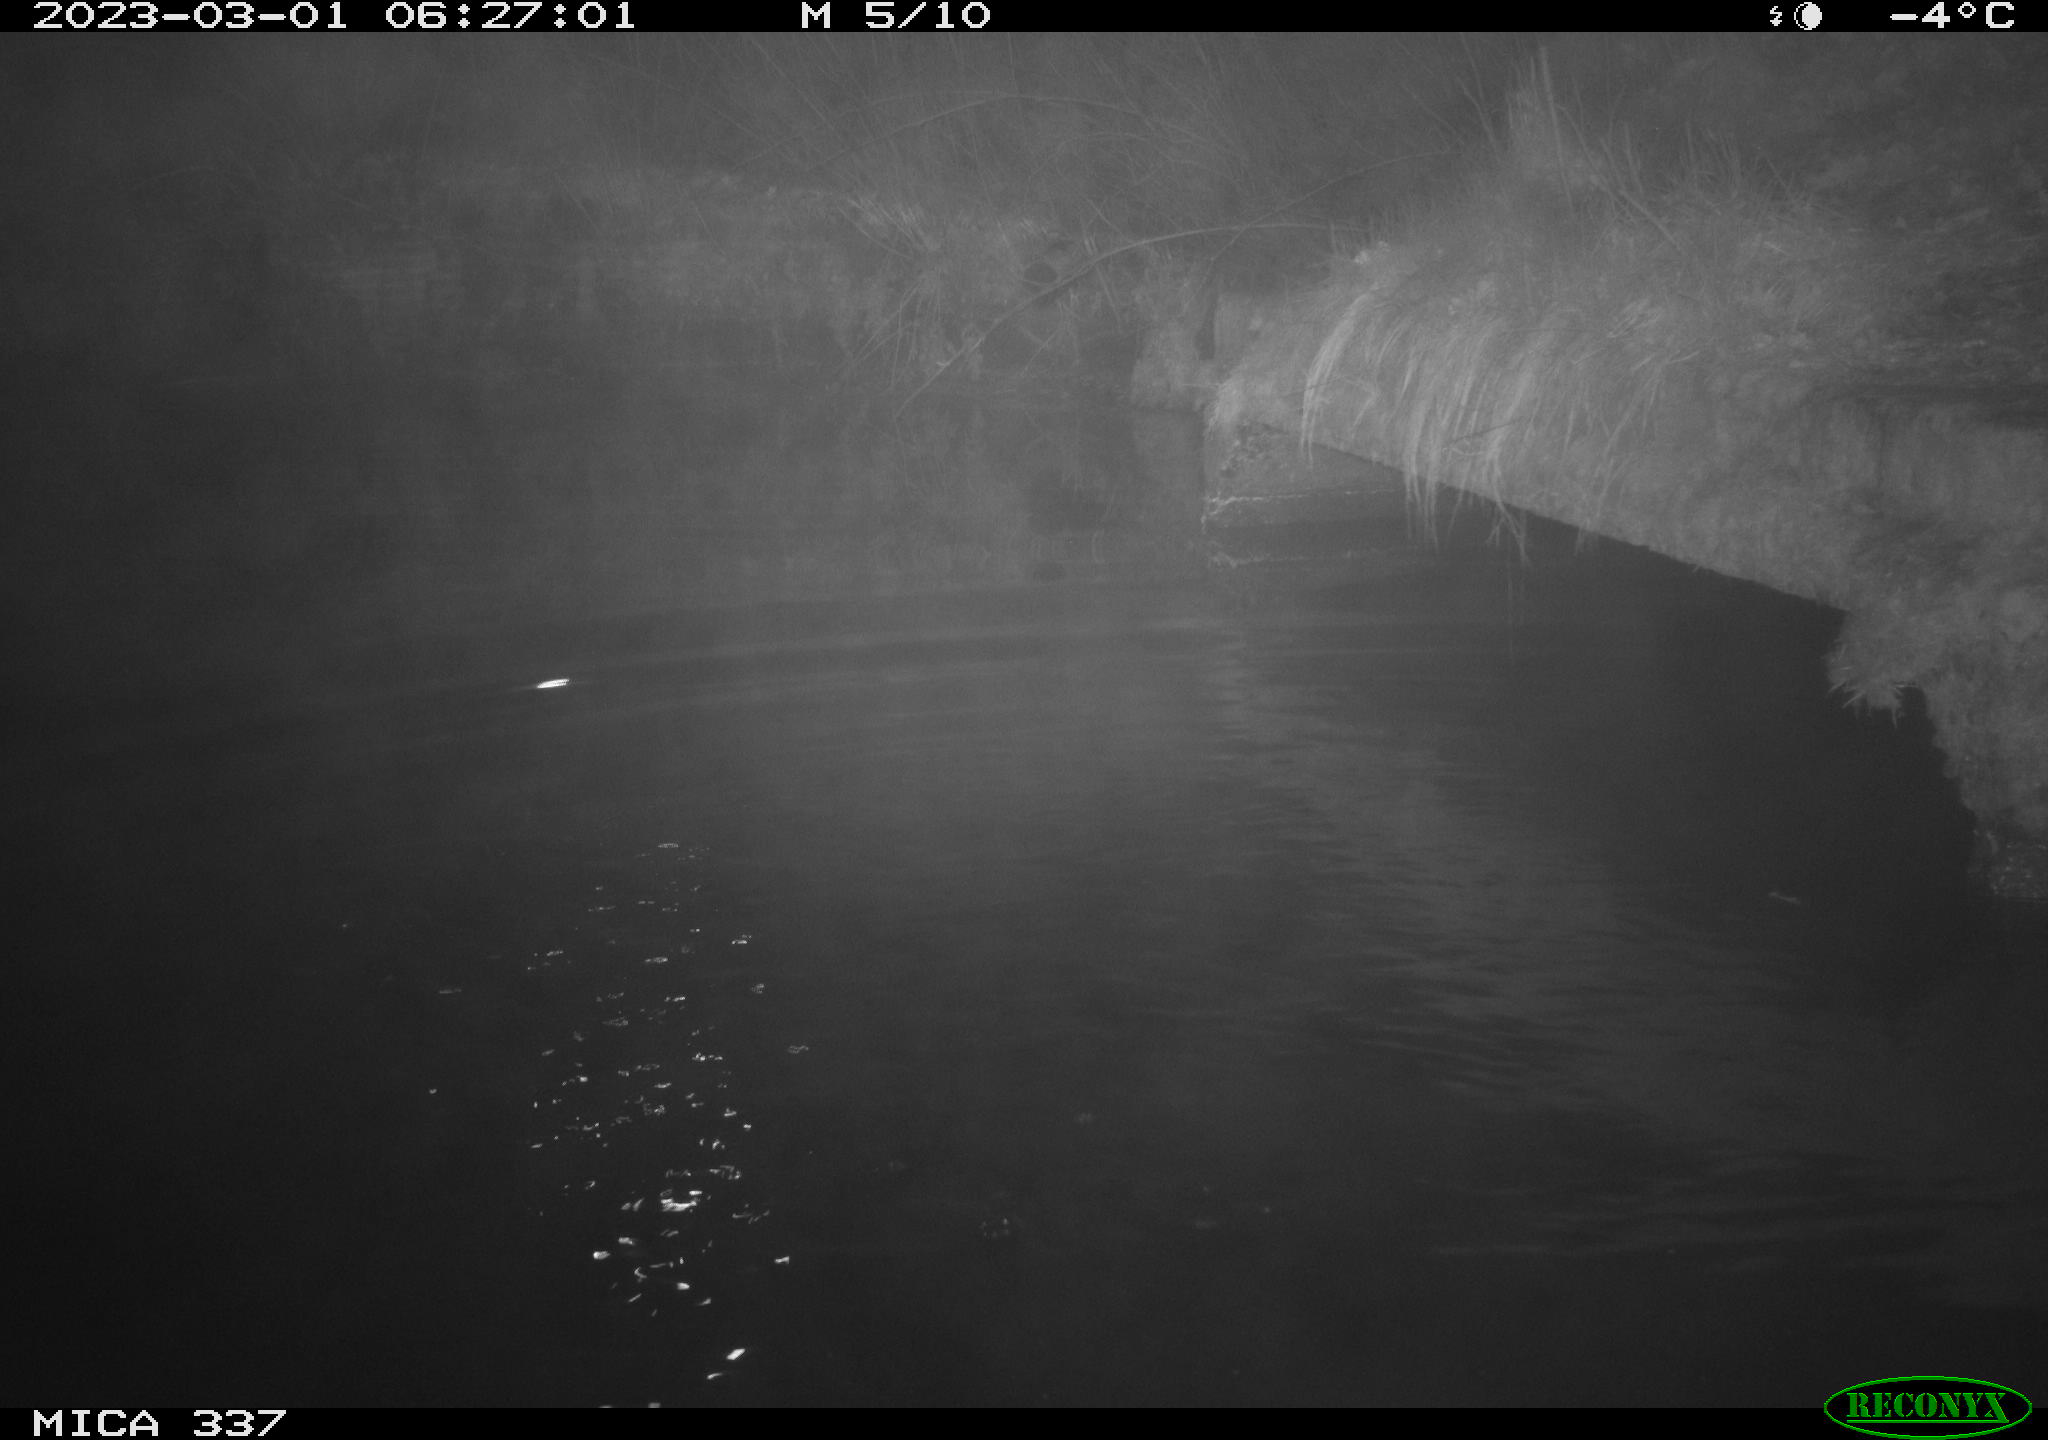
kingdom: Animalia
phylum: Chordata
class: Aves
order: Anseriformes
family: Anatidae
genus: Anas
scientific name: Anas
